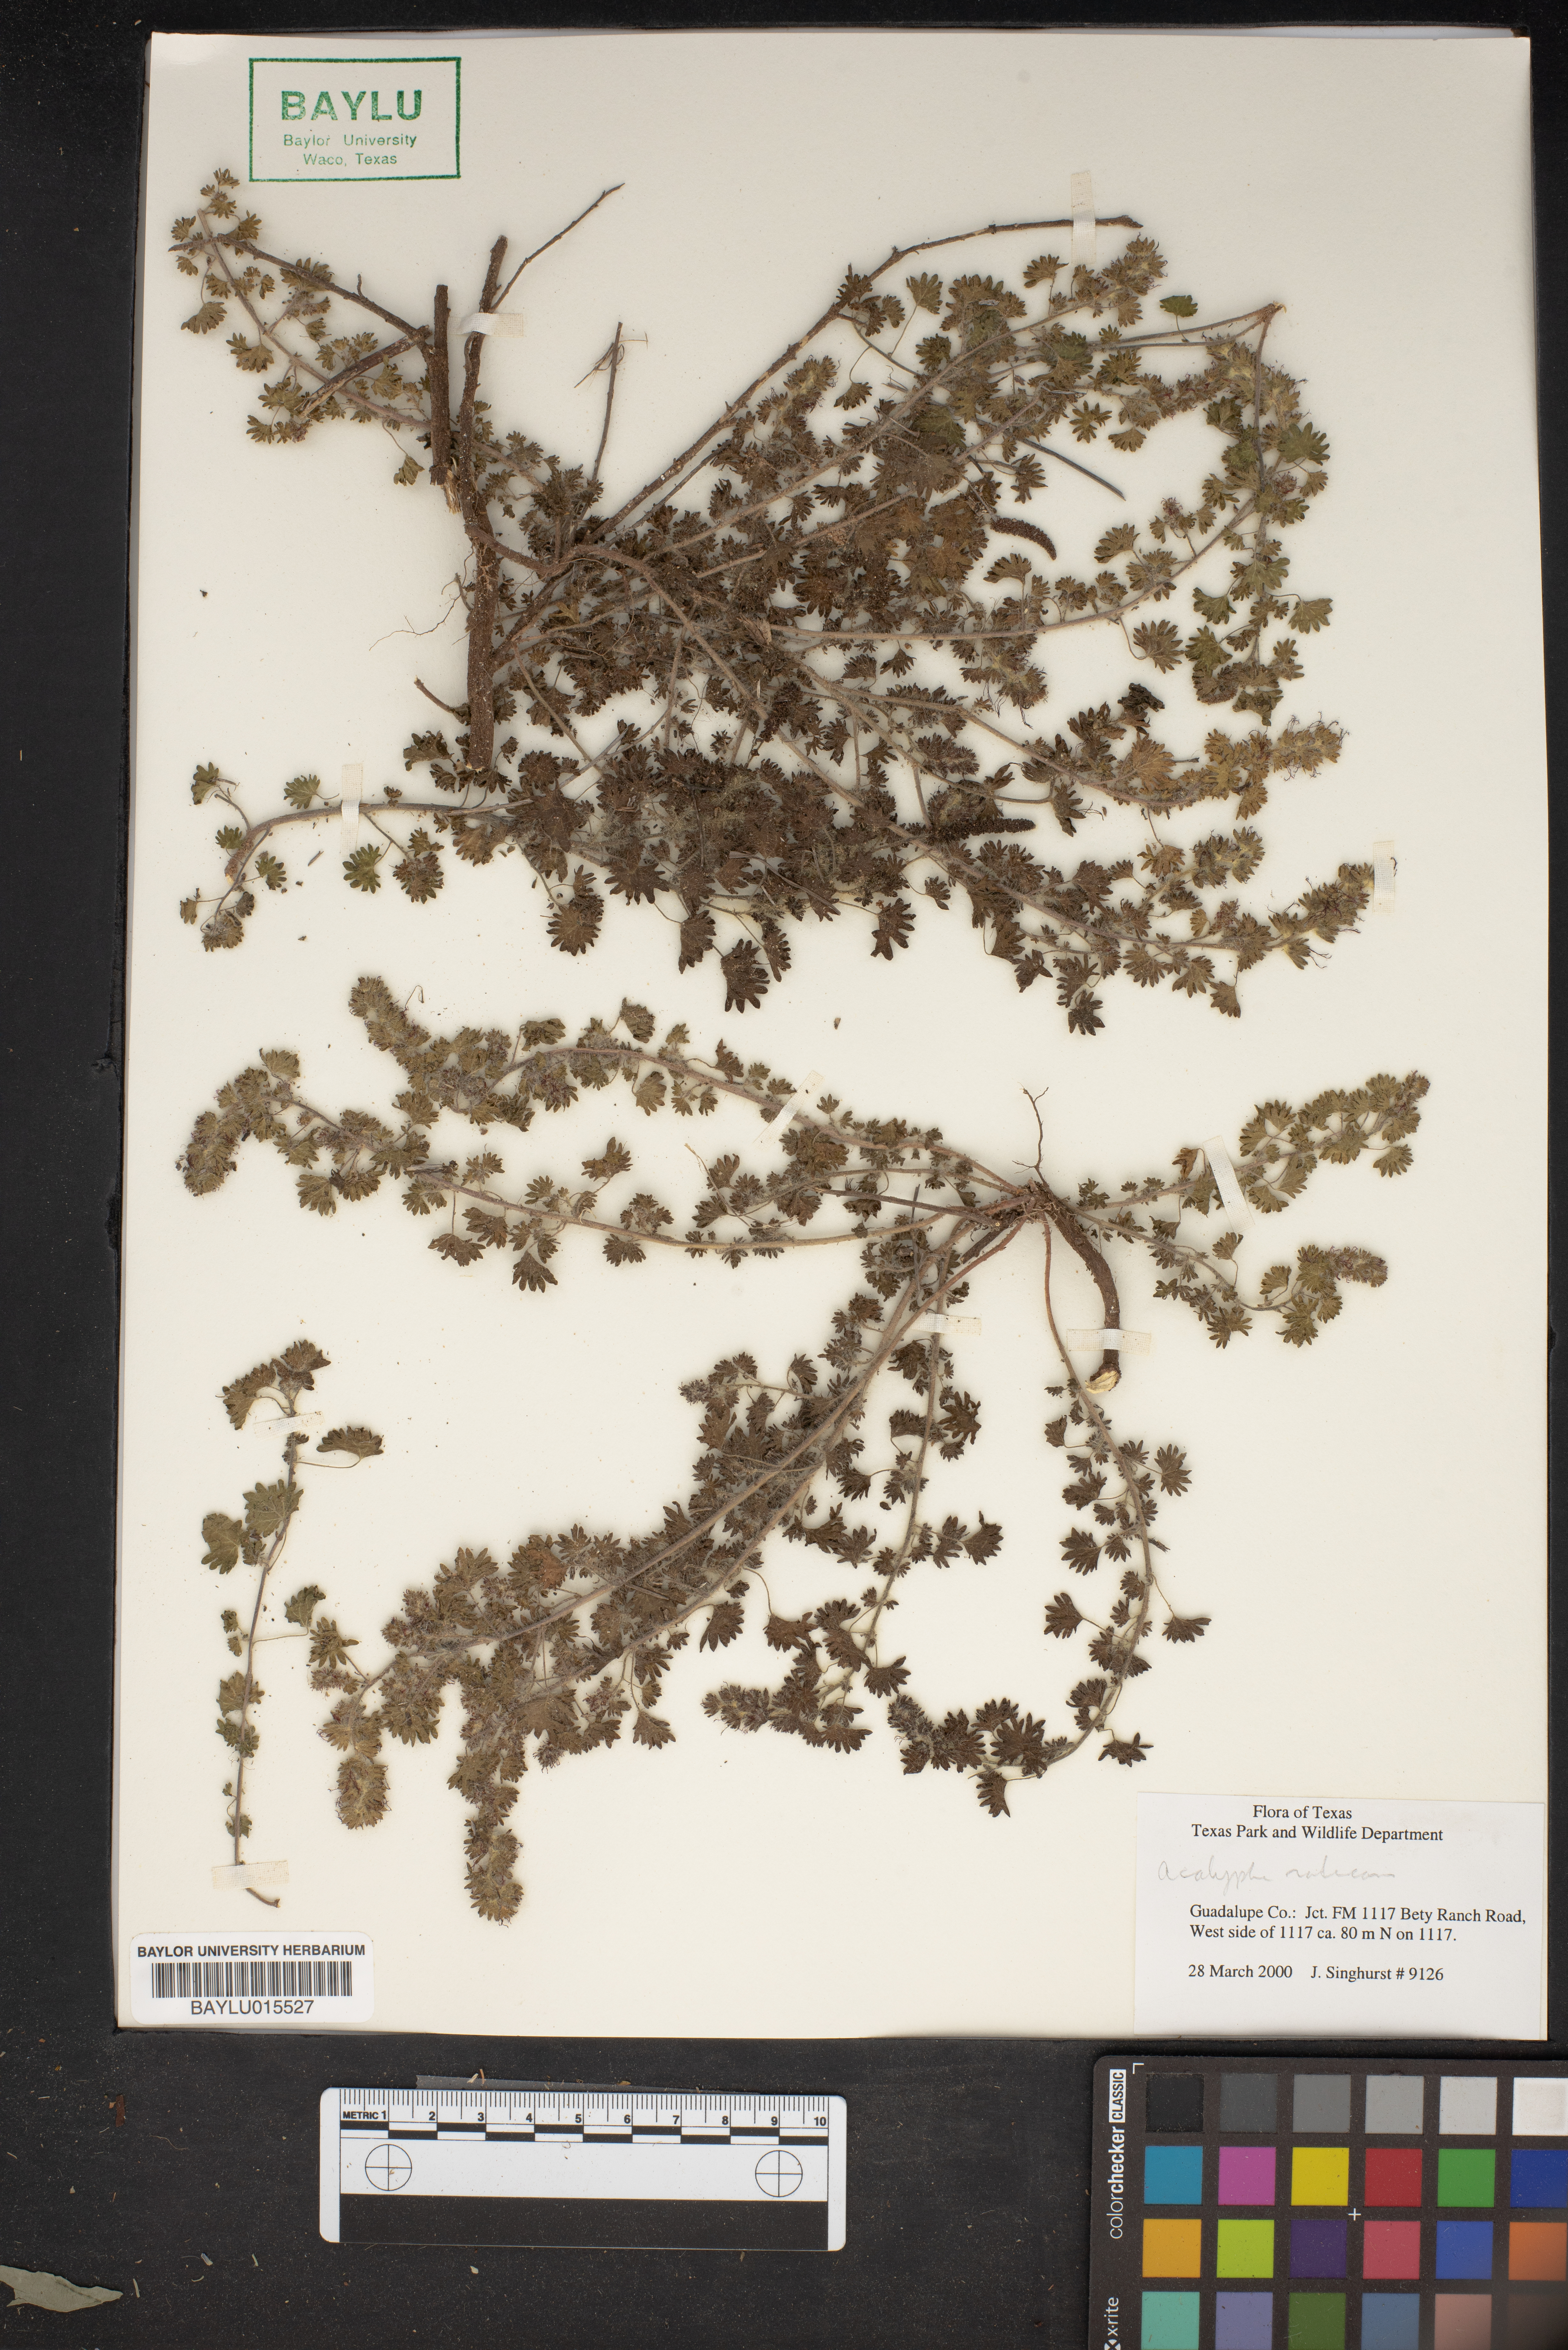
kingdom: Plantae
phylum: Tracheophyta
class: Magnoliopsida
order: Malpighiales
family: Euphorbiaceae
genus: Acalypha
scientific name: Acalypha radians
